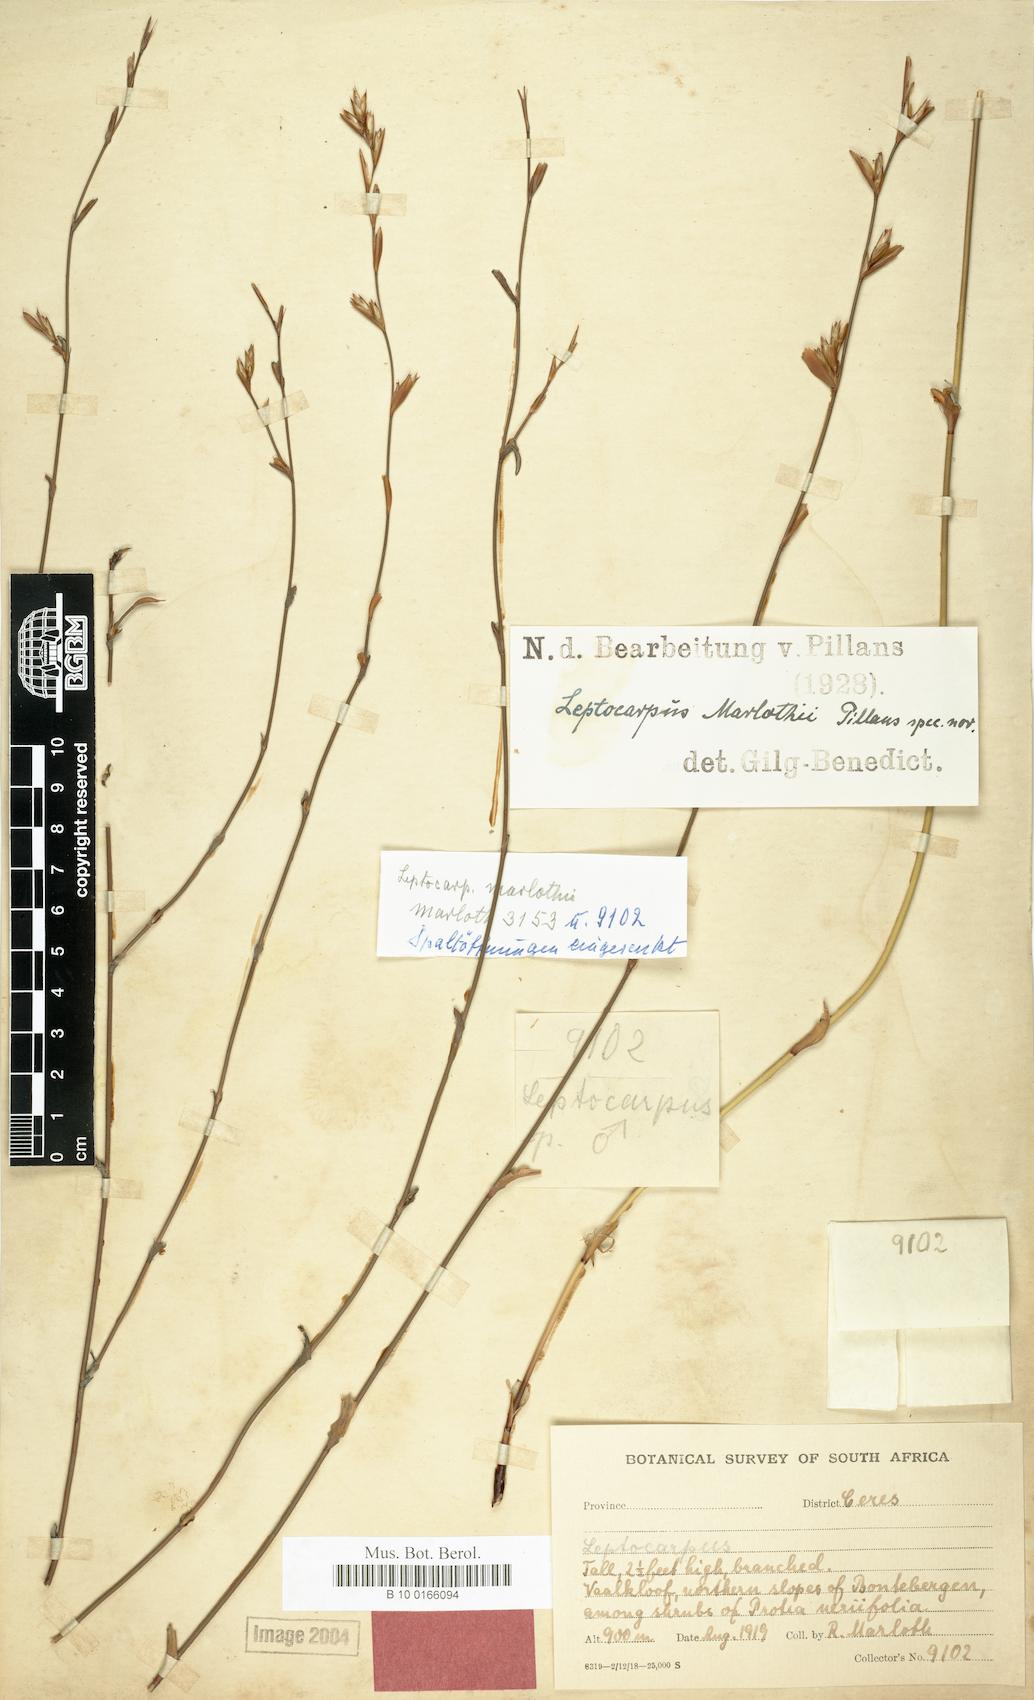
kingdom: Plantae
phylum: Tracheophyta
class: Liliopsida
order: Poales
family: Restionaceae
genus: Restio
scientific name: Restio rudolfii
